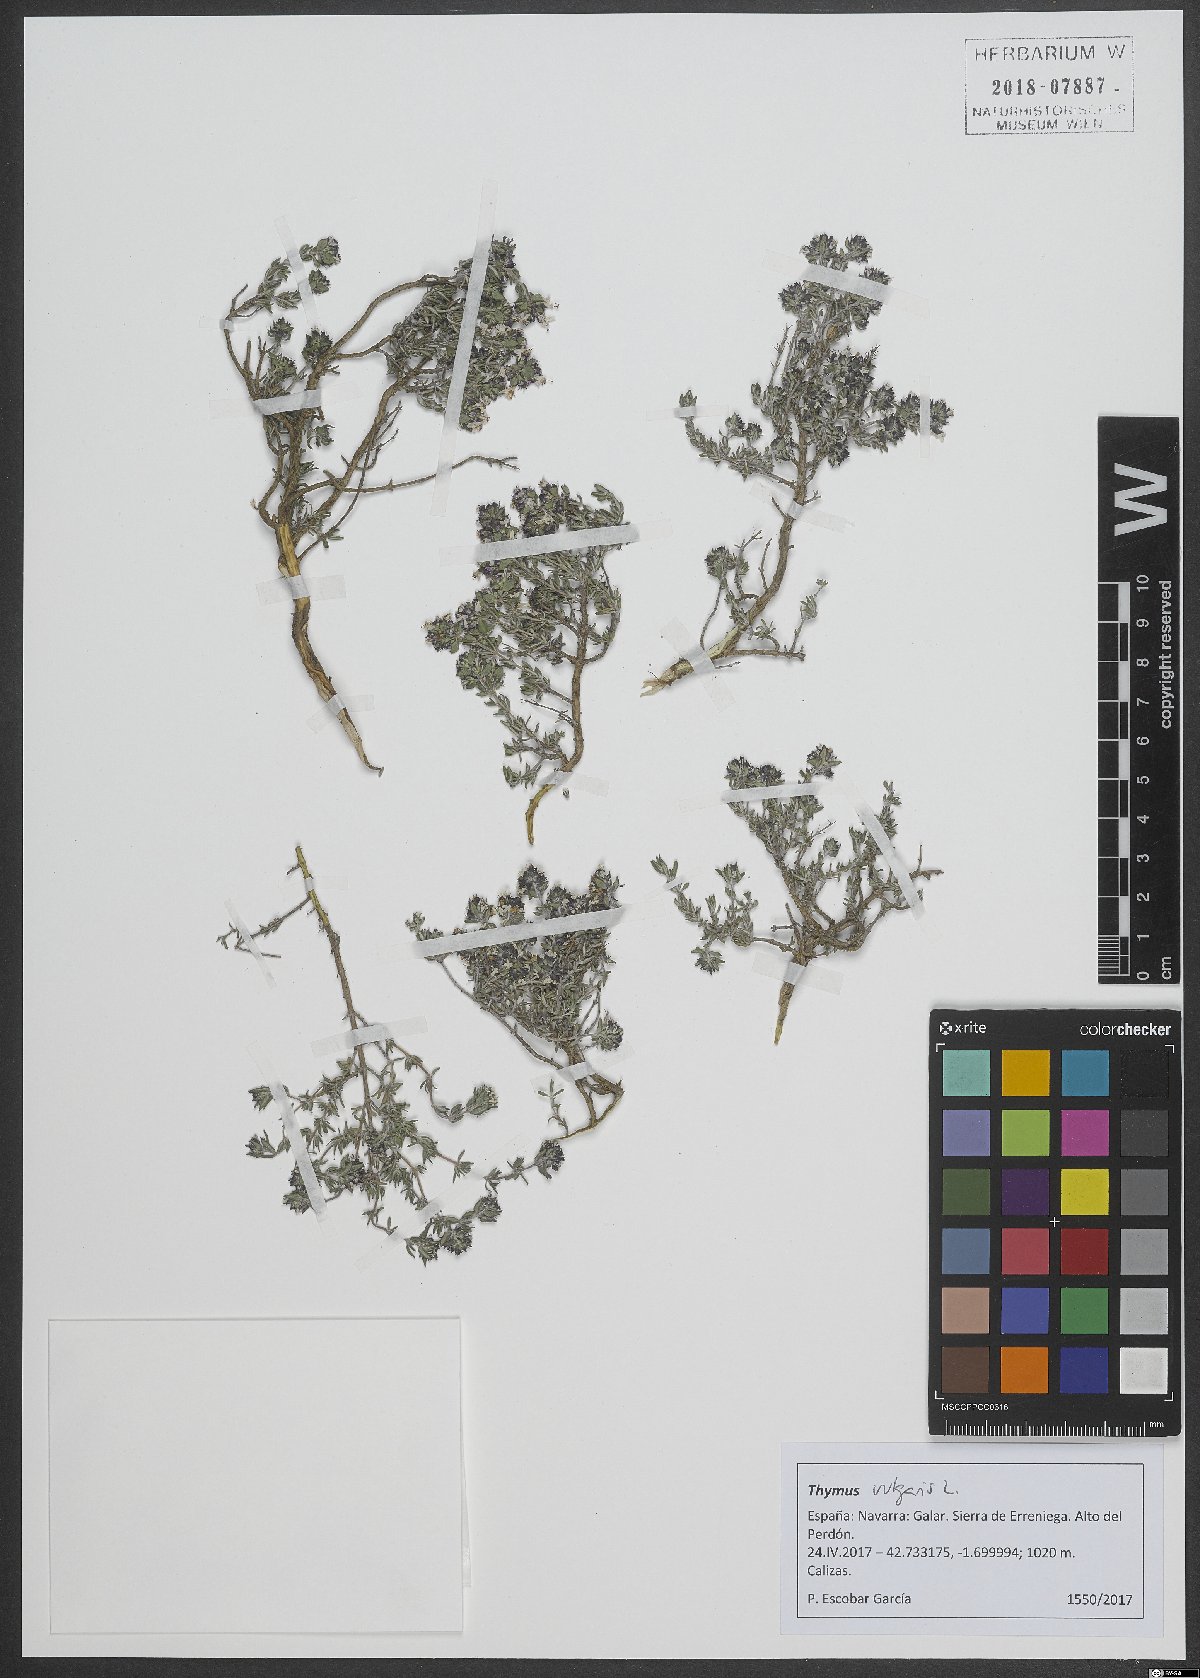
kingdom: Plantae
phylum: Tracheophyta
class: Magnoliopsida
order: Lamiales
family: Lamiaceae
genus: Thymus
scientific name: Thymus vulgaris
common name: Garden thyme
